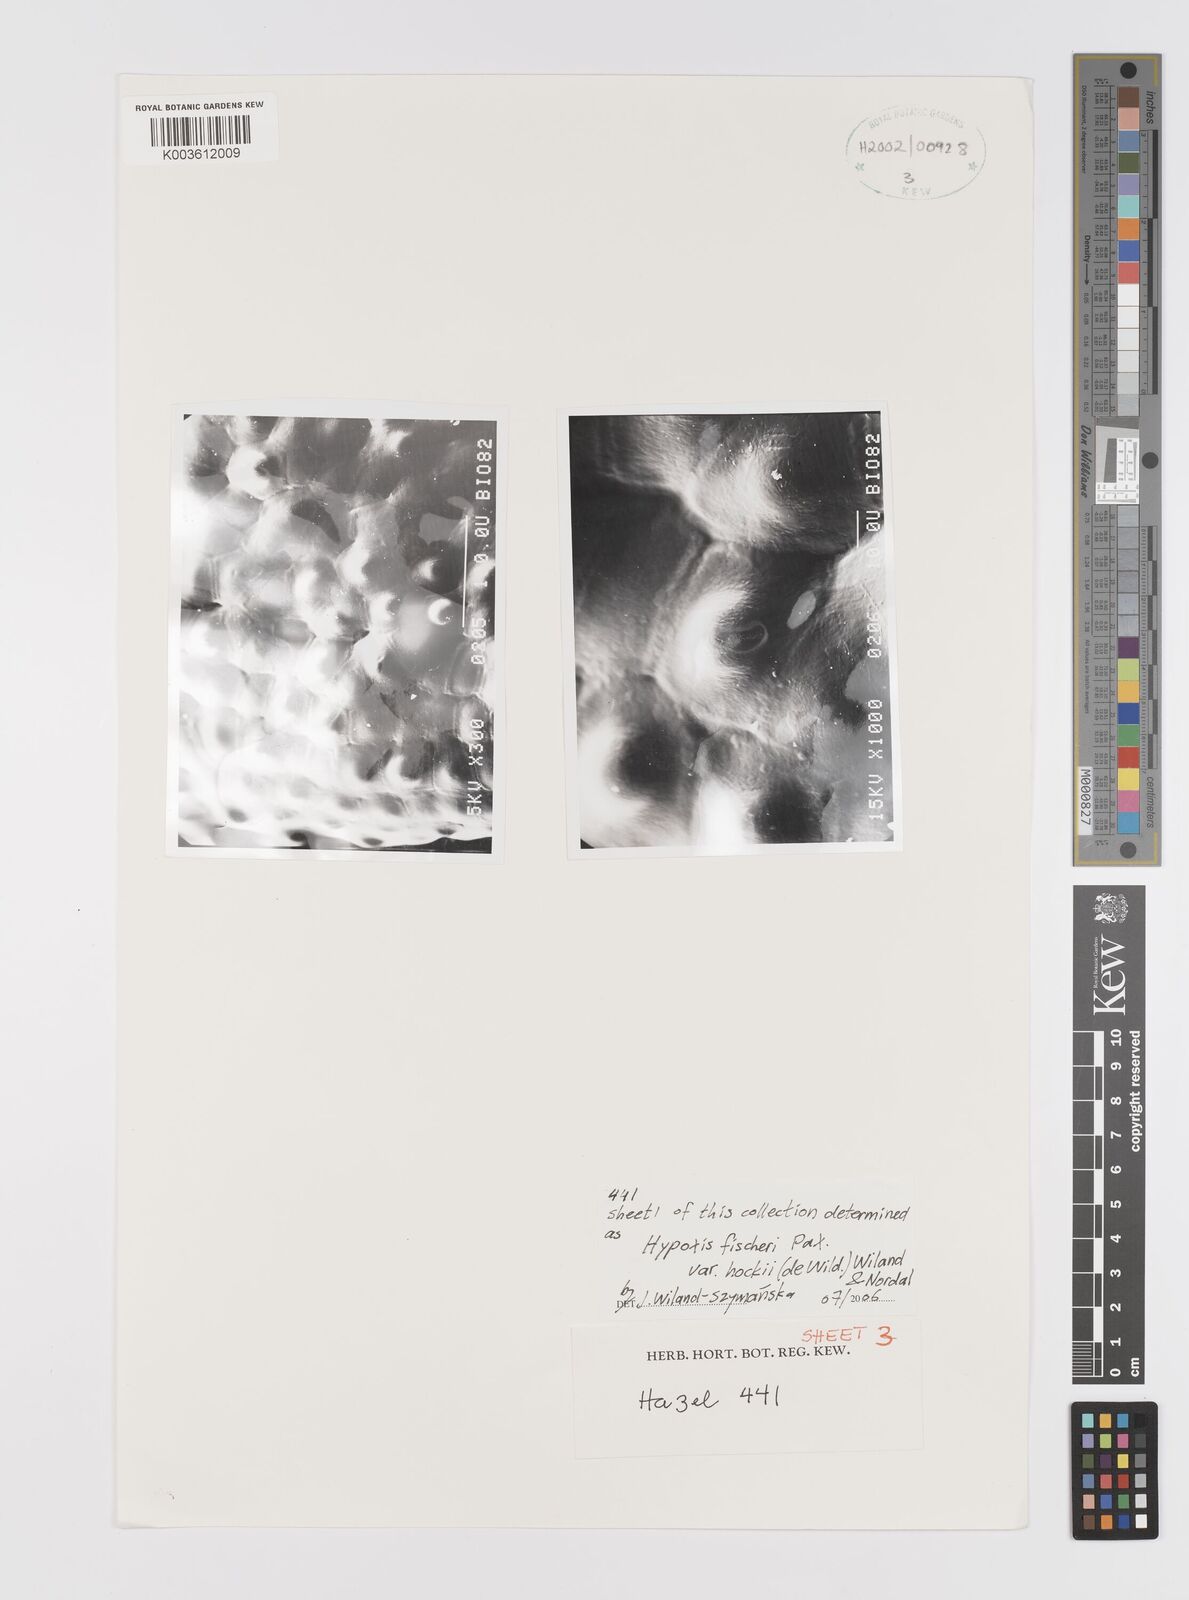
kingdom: Plantae
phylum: Tracheophyta
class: Liliopsida
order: Asparagales
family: Hypoxidaceae
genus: Hypoxis
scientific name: Hypoxis fischeri
